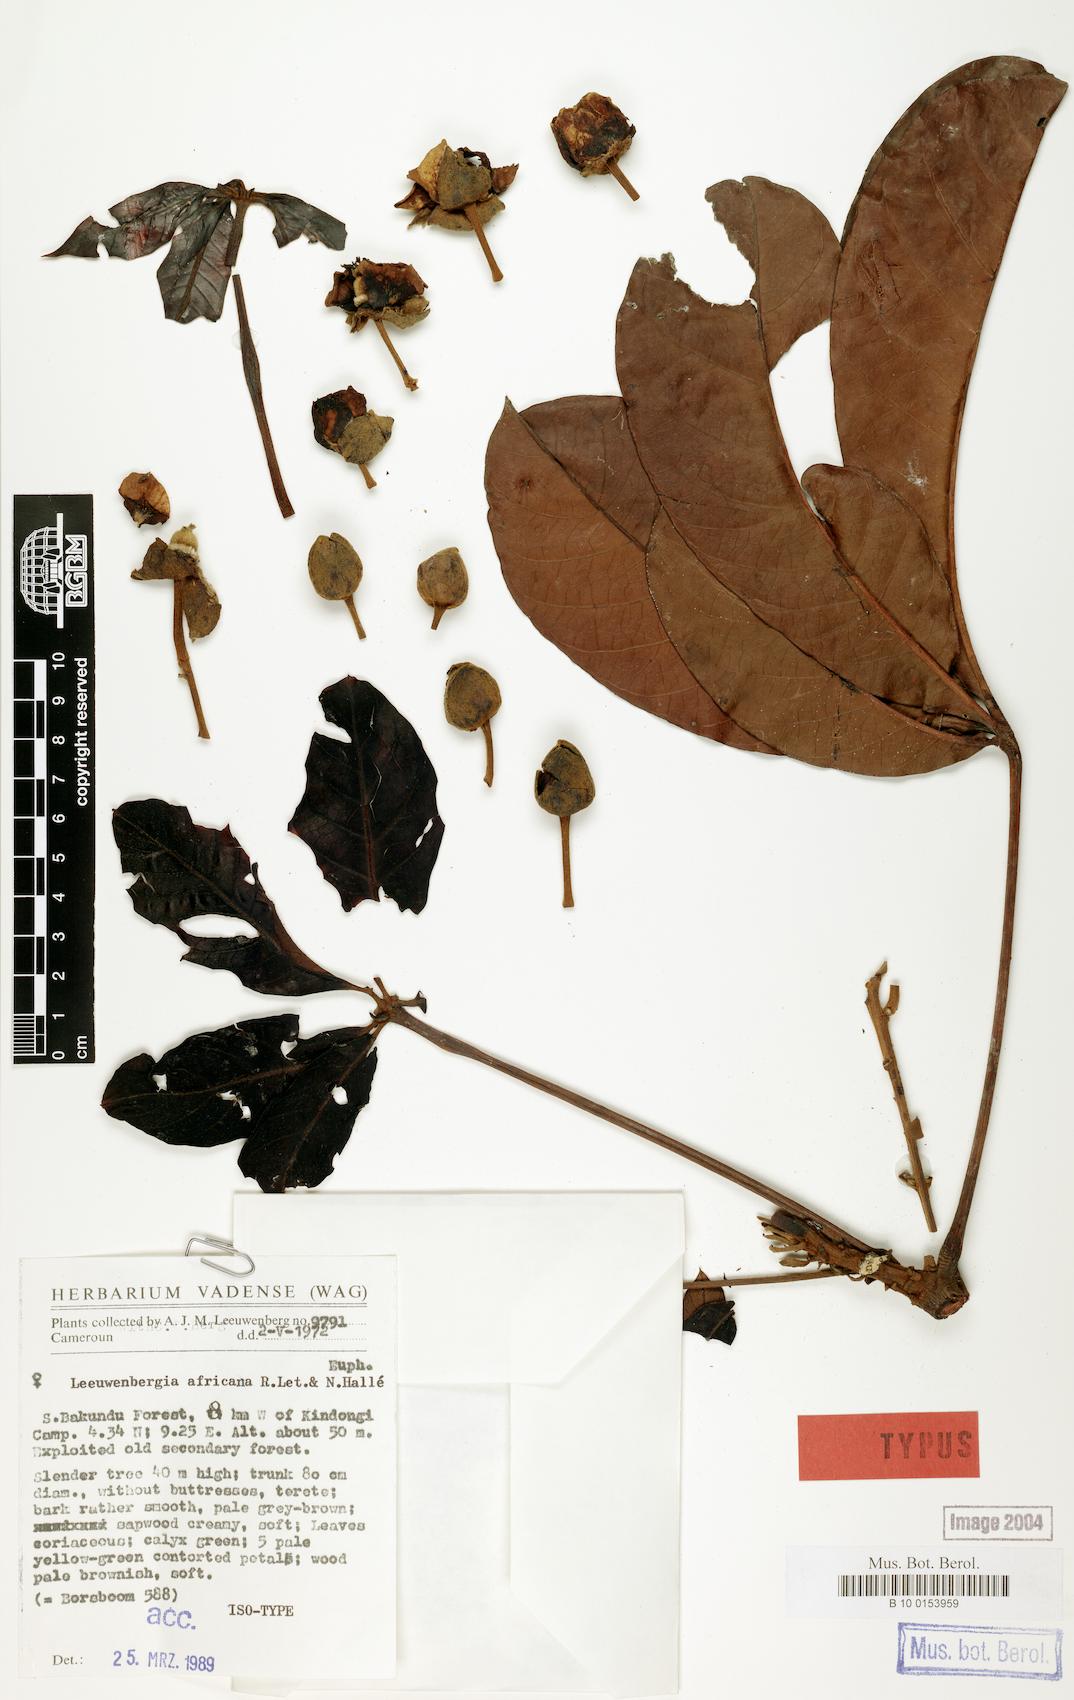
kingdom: Plantae
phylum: Tracheophyta
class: Magnoliopsida
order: Malpighiales
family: Euphorbiaceae
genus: Leeuwenbergia
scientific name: Leeuwenbergia africana
